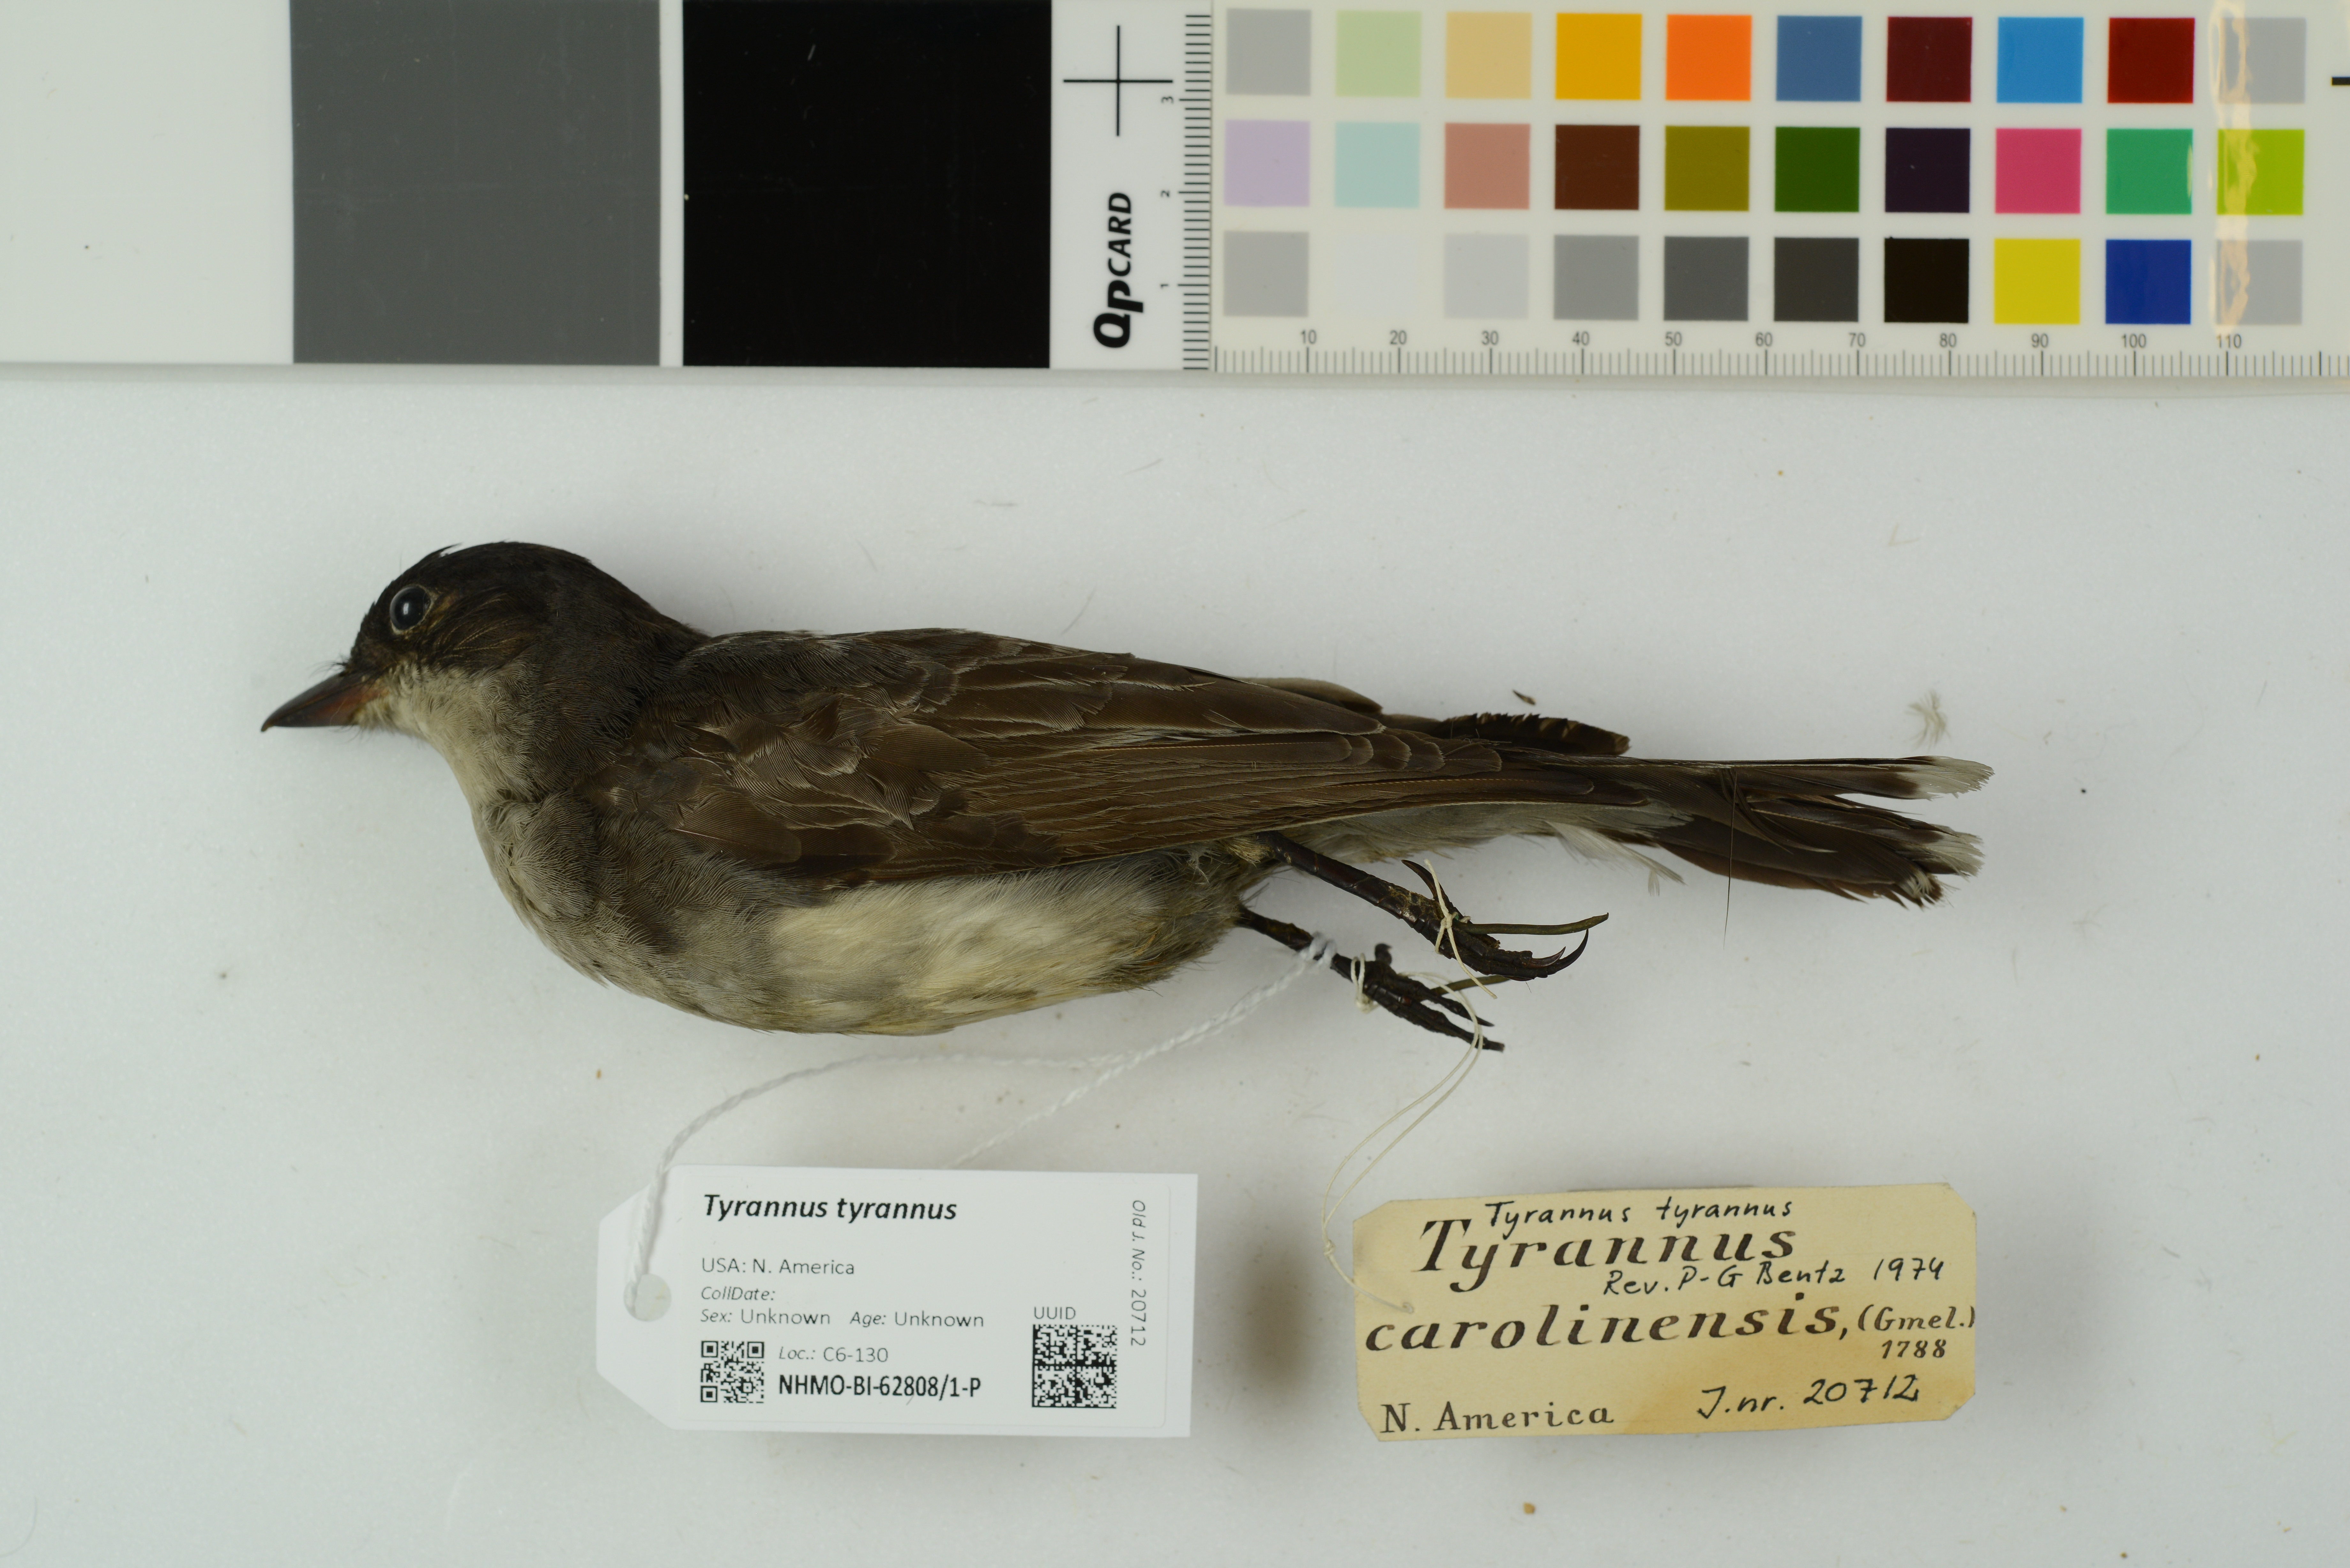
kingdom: Animalia
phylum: Chordata
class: Aves
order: Passeriformes
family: Tyrannidae
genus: Tyrannus
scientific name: Tyrannus tyrannus
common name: Eastern kingbird
